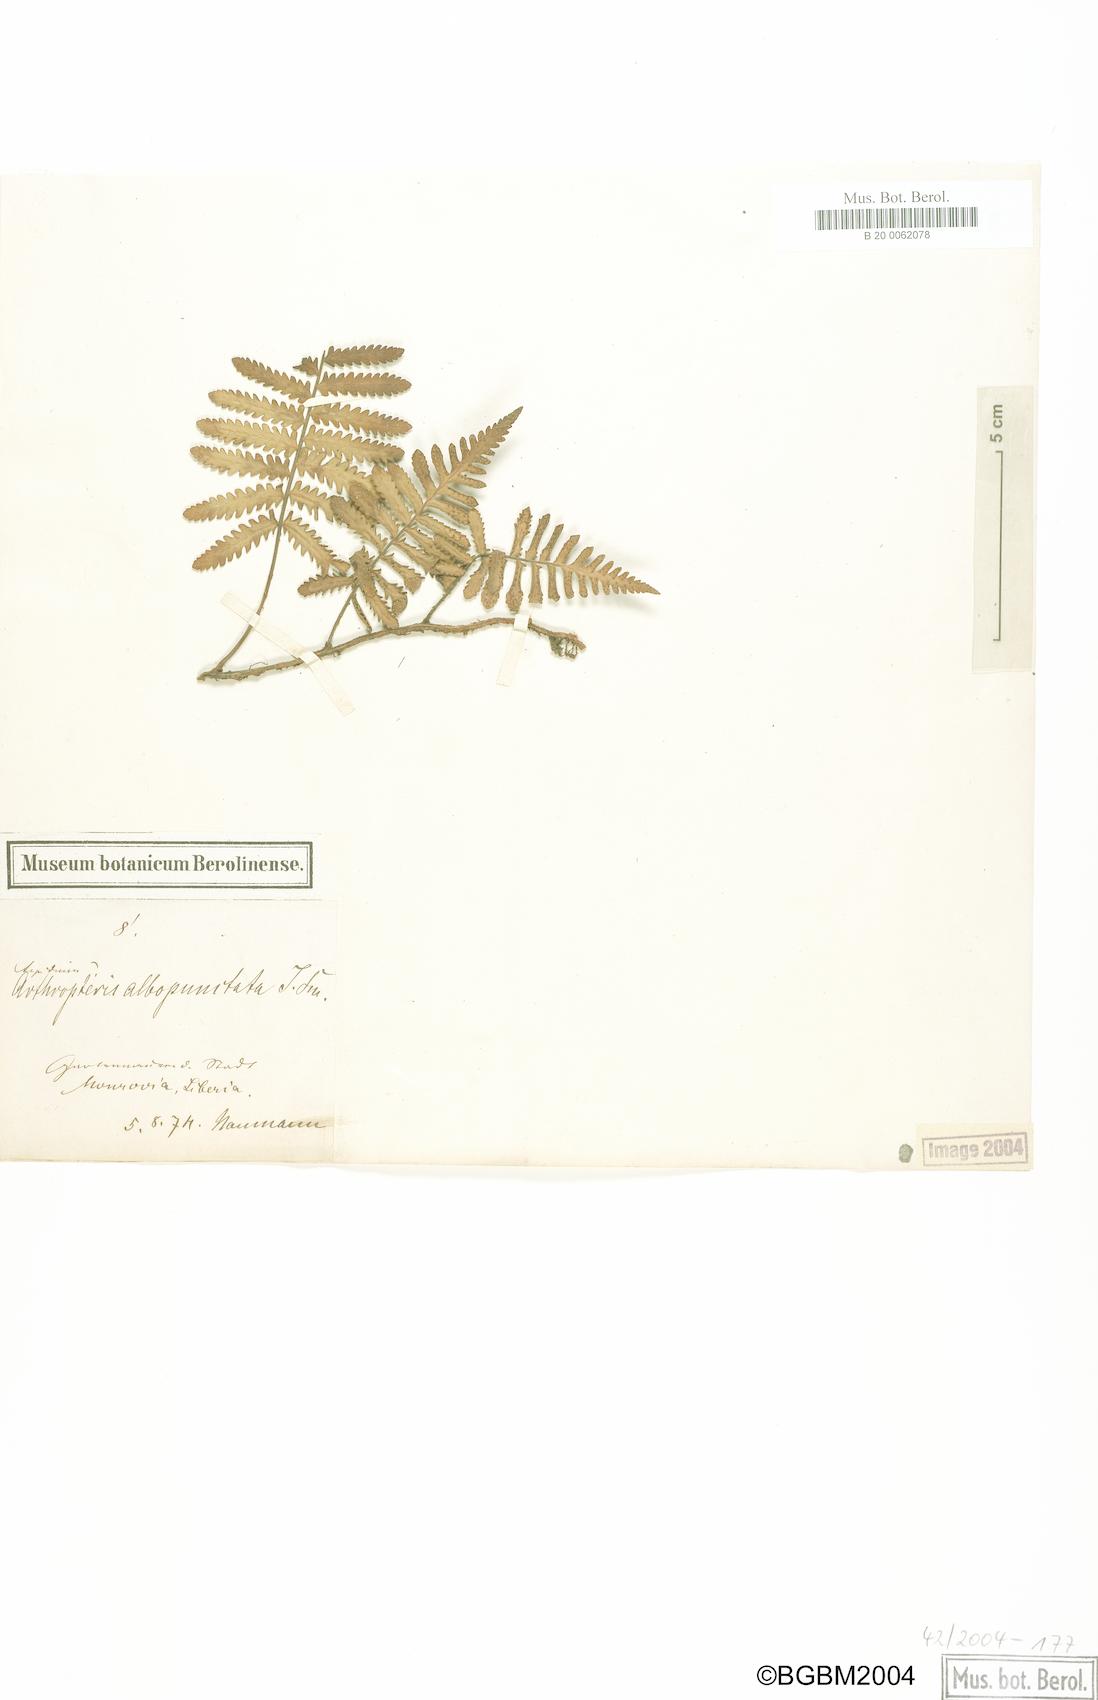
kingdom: Plantae
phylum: Tracheophyta
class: Polypodiopsida
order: Polypodiales
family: Tectariaceae
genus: Arthropteris
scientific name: Arthropteris orientalis
